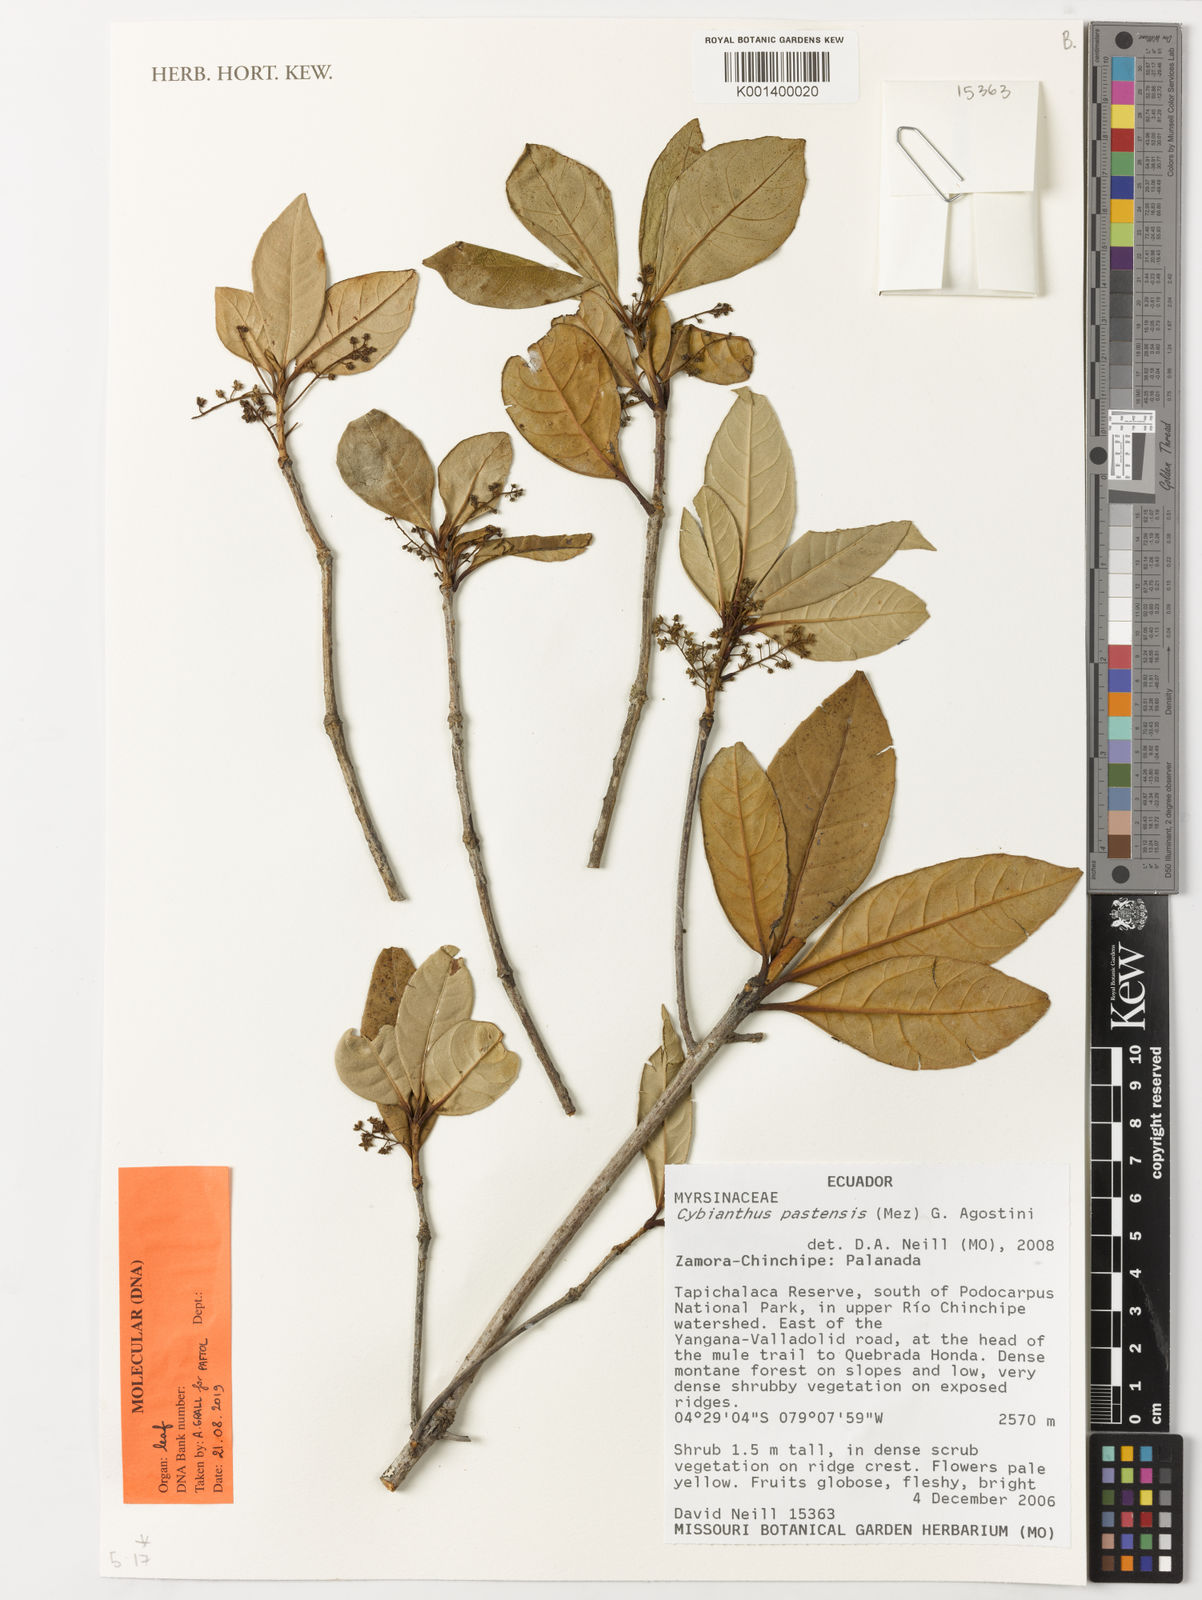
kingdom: Plantae
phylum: Tracheophyta
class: Magnoliopsida
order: Ericales
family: Primulaceae
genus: Cybianthus
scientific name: Cybianthus pastensis
